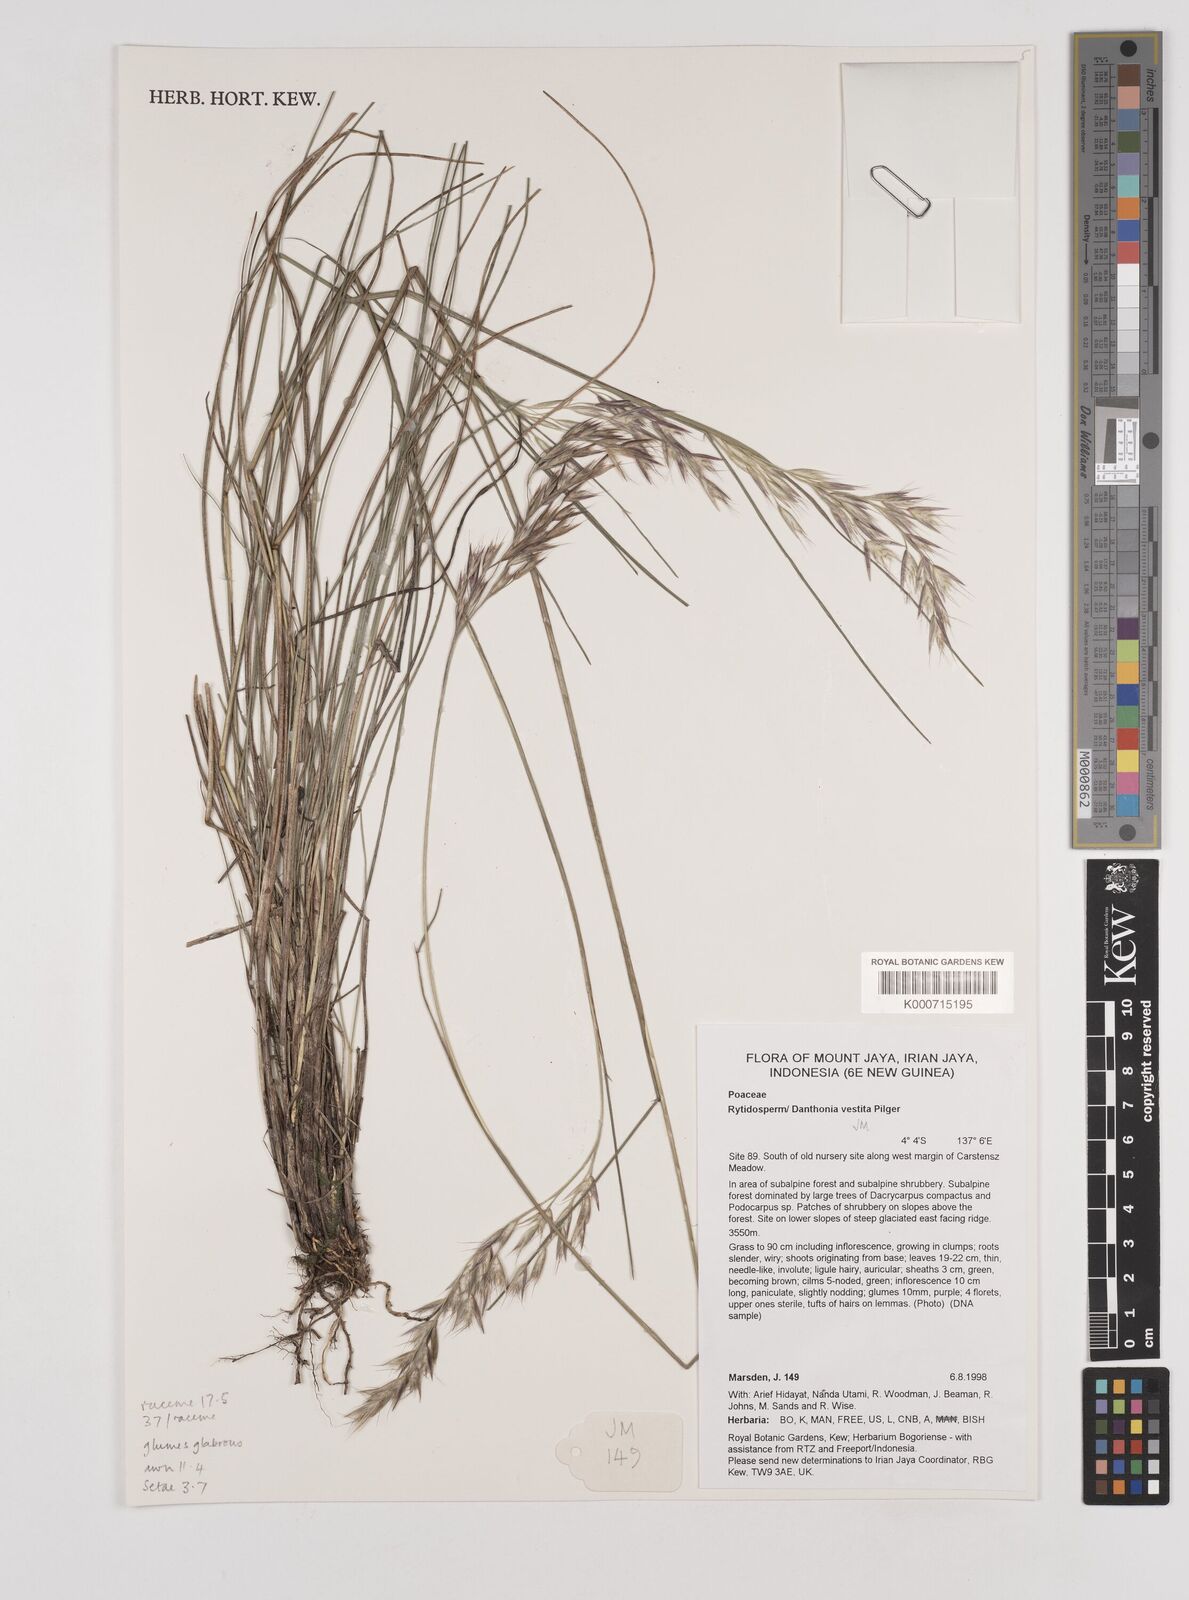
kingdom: Plantae
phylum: Tracheophyta
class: Liliopsida
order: Poales
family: Poaceae
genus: Rytidosperma
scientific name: Rytidosperma vestitum
